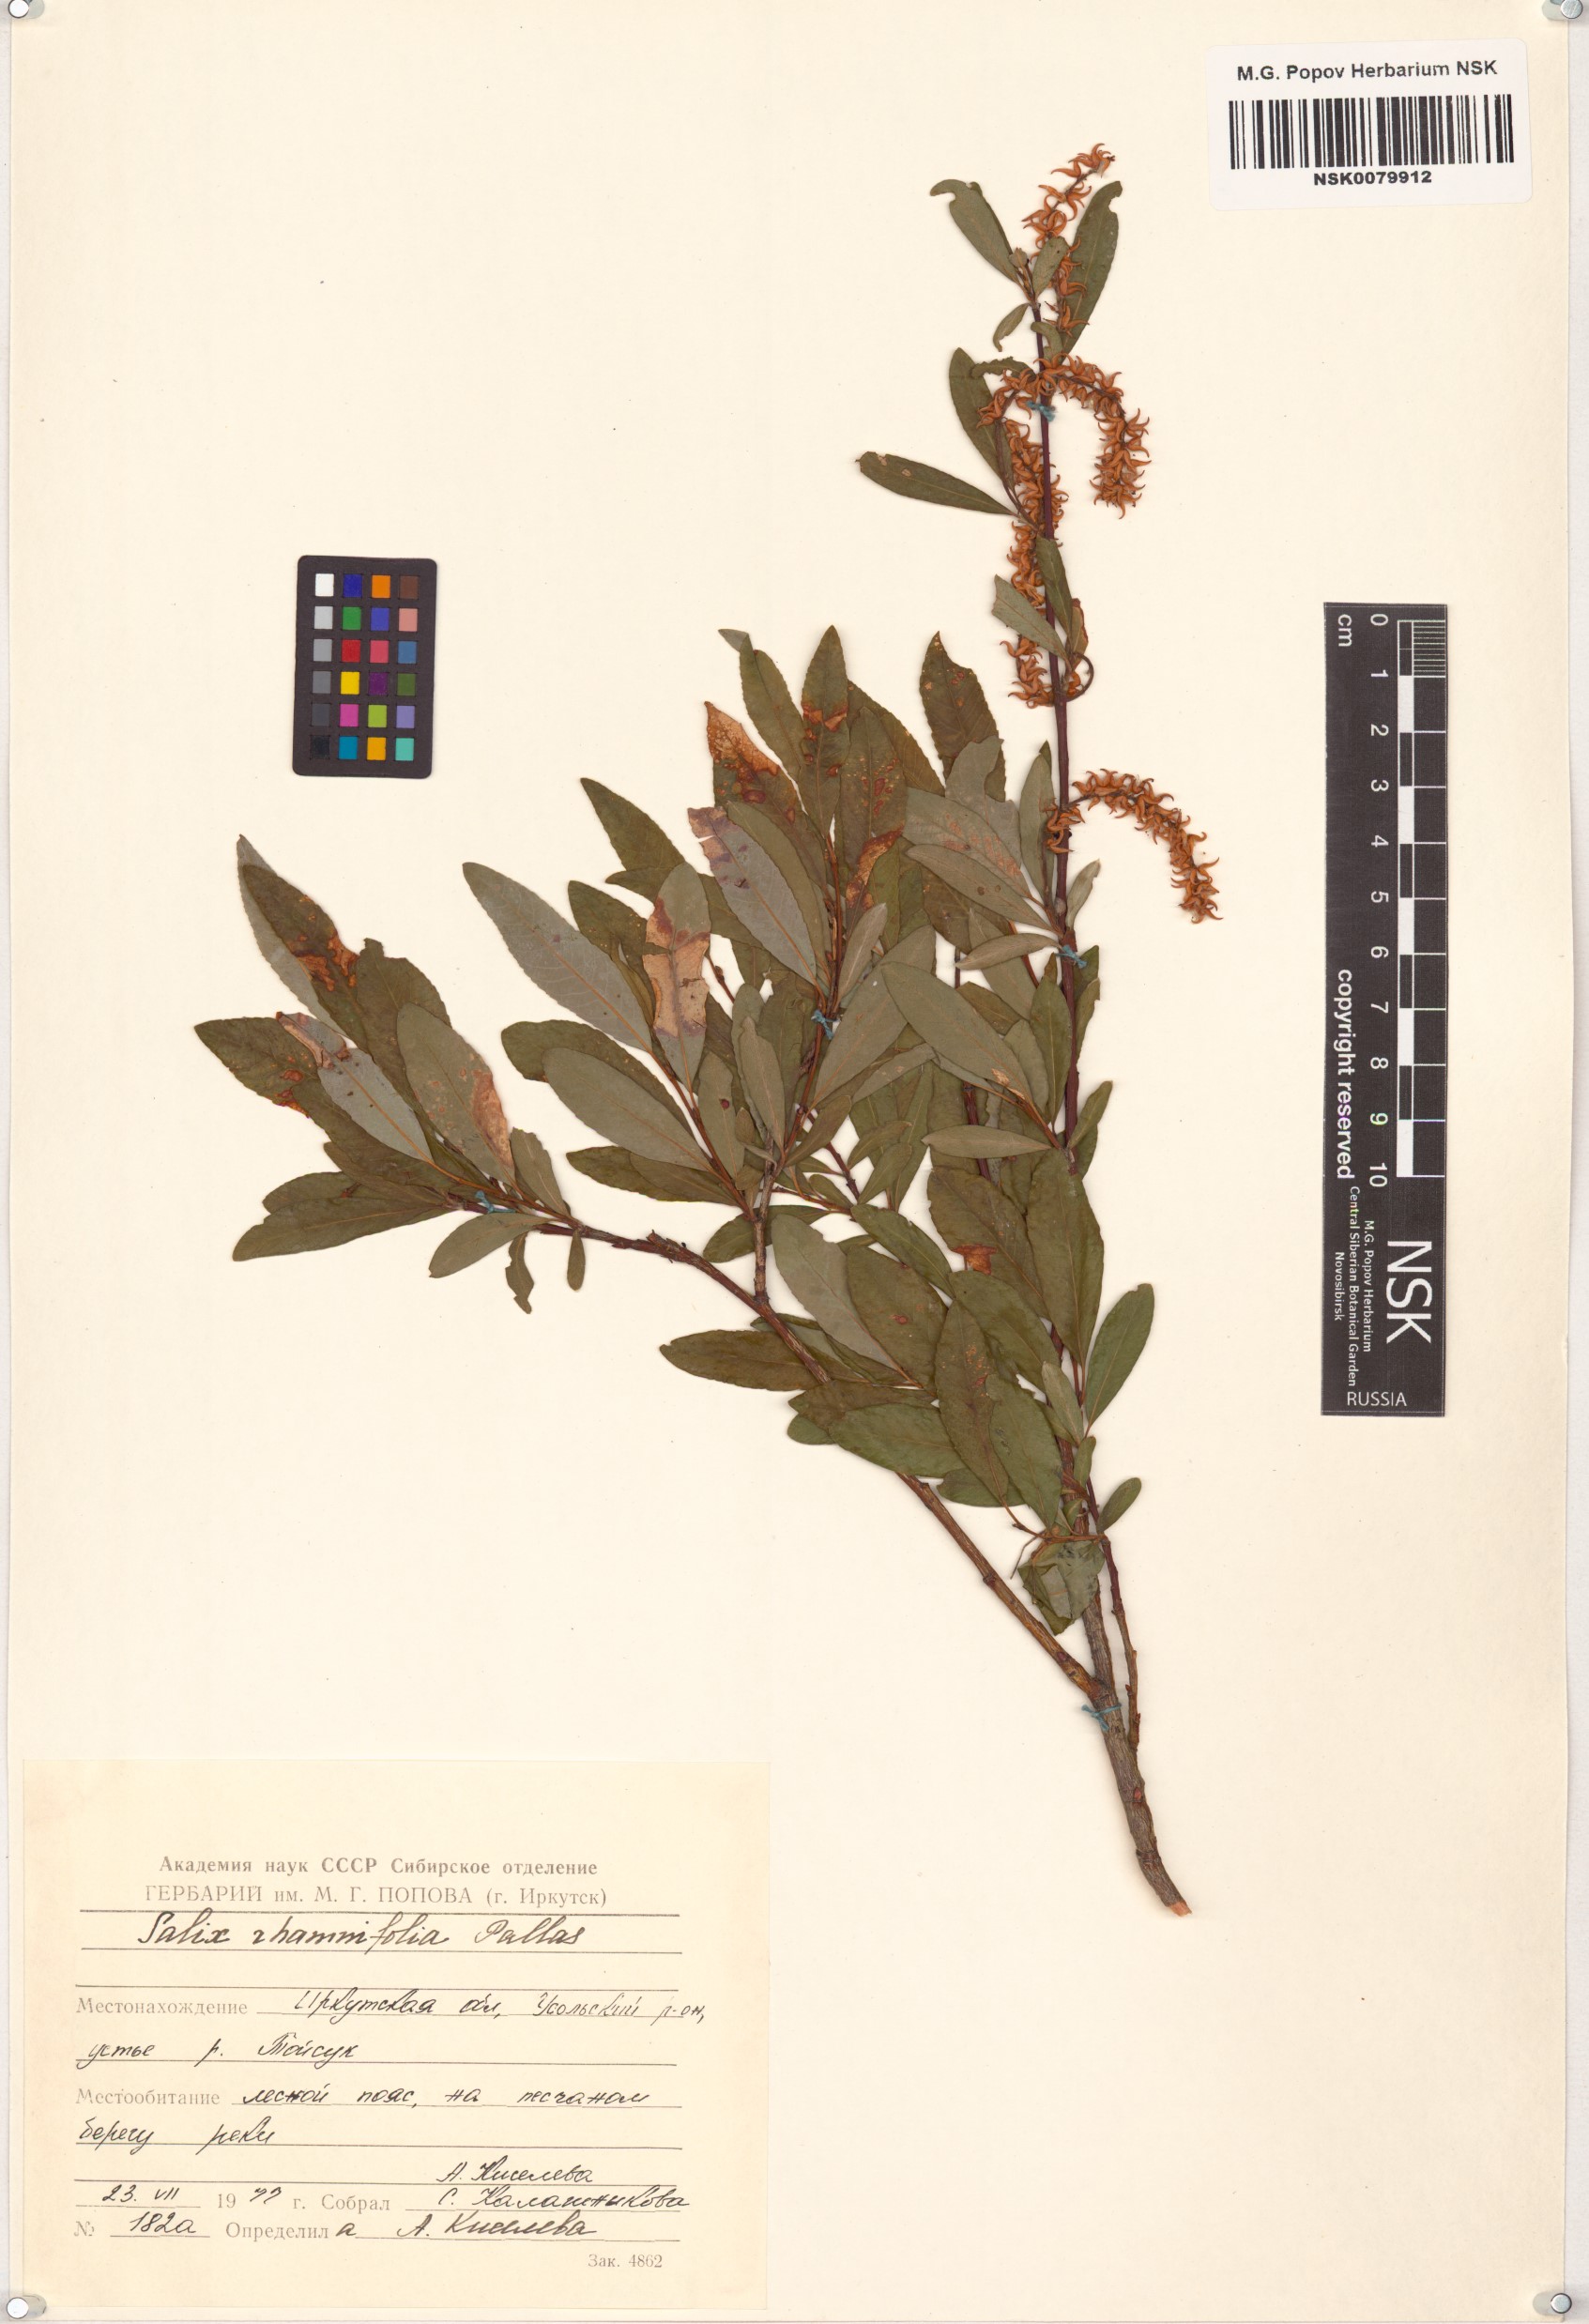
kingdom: Plantae
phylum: Tracheophyta
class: Magnoliopsida
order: Malpighiales
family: Salicaceae
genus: Salix
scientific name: Salix rhamnifolia
